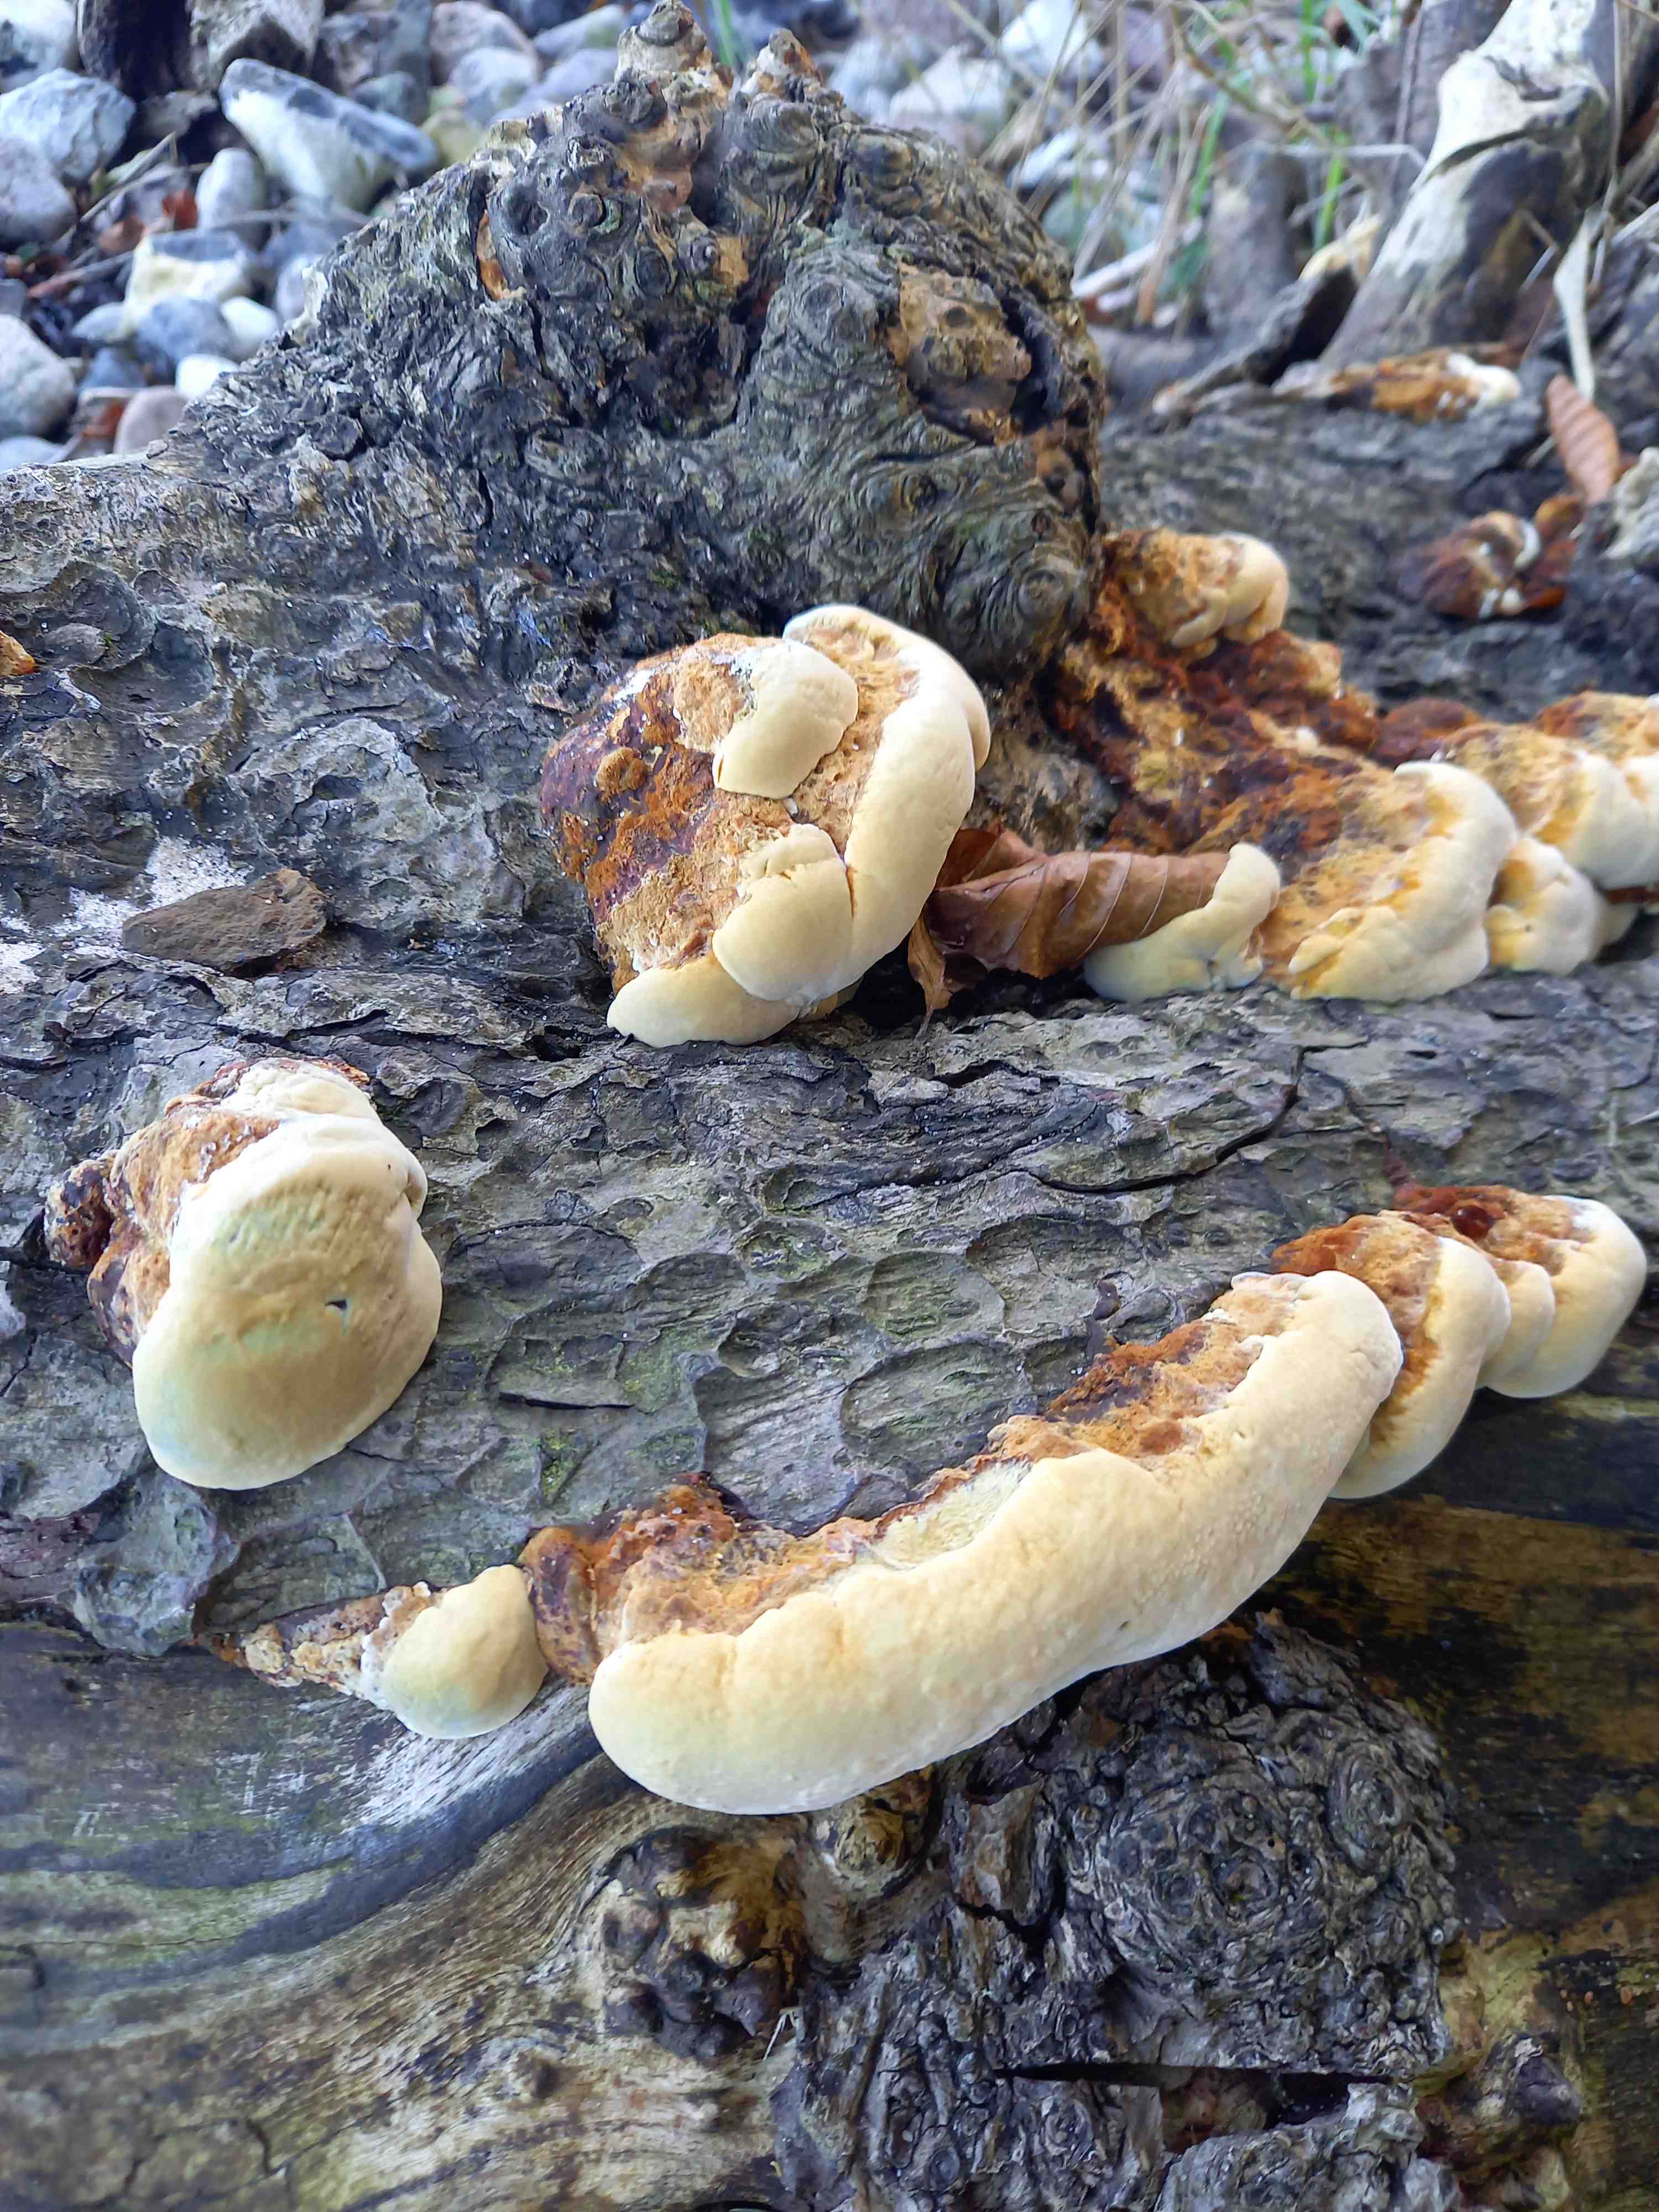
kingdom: Fungi
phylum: Basidiomycota
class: Agaricomycetes
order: Hymenochaetales
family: Hymenochaetaceae
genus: Xanthoporia
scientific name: Xanthoporia radiata
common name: elle-spejlporesvamp
